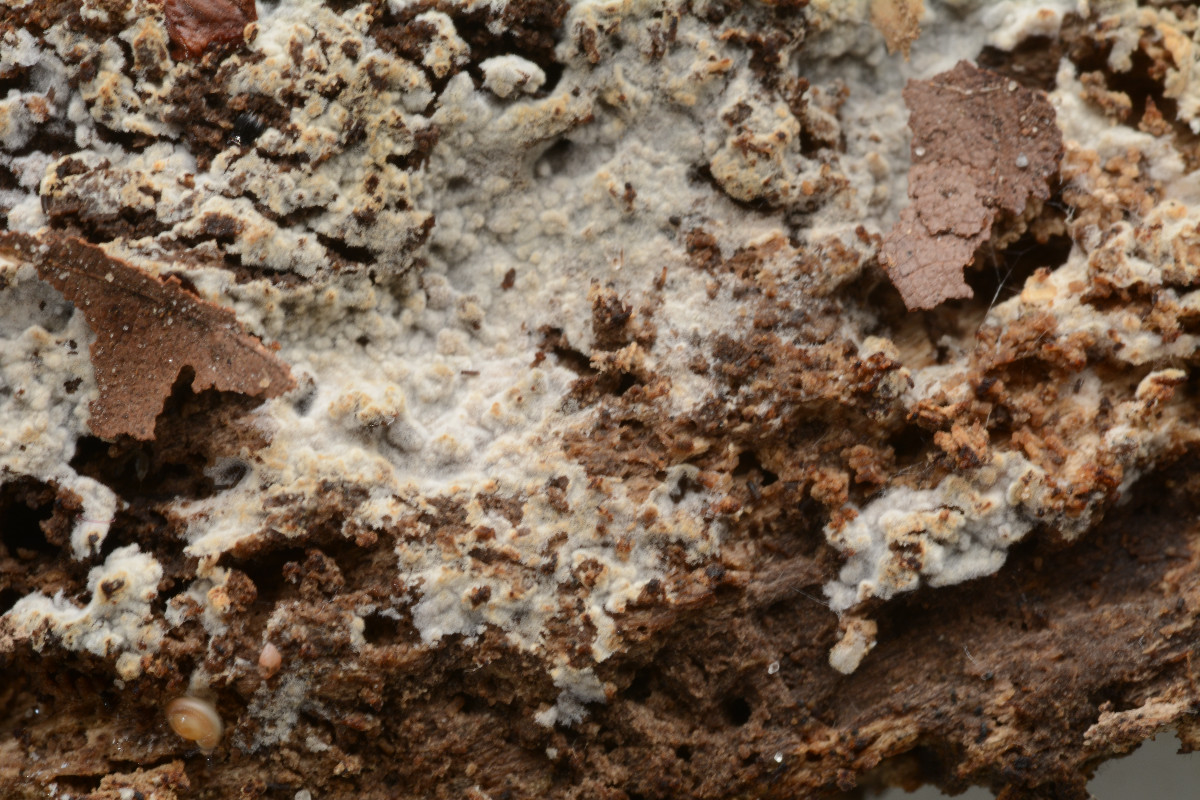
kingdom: Fungi
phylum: Basidiomycota
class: Agaricomycetes
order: Trechisporales
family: Hydnodontaceae
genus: Subulicystidium
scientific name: Subulicystidium longisporum
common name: almindelig pigtrådshinde
